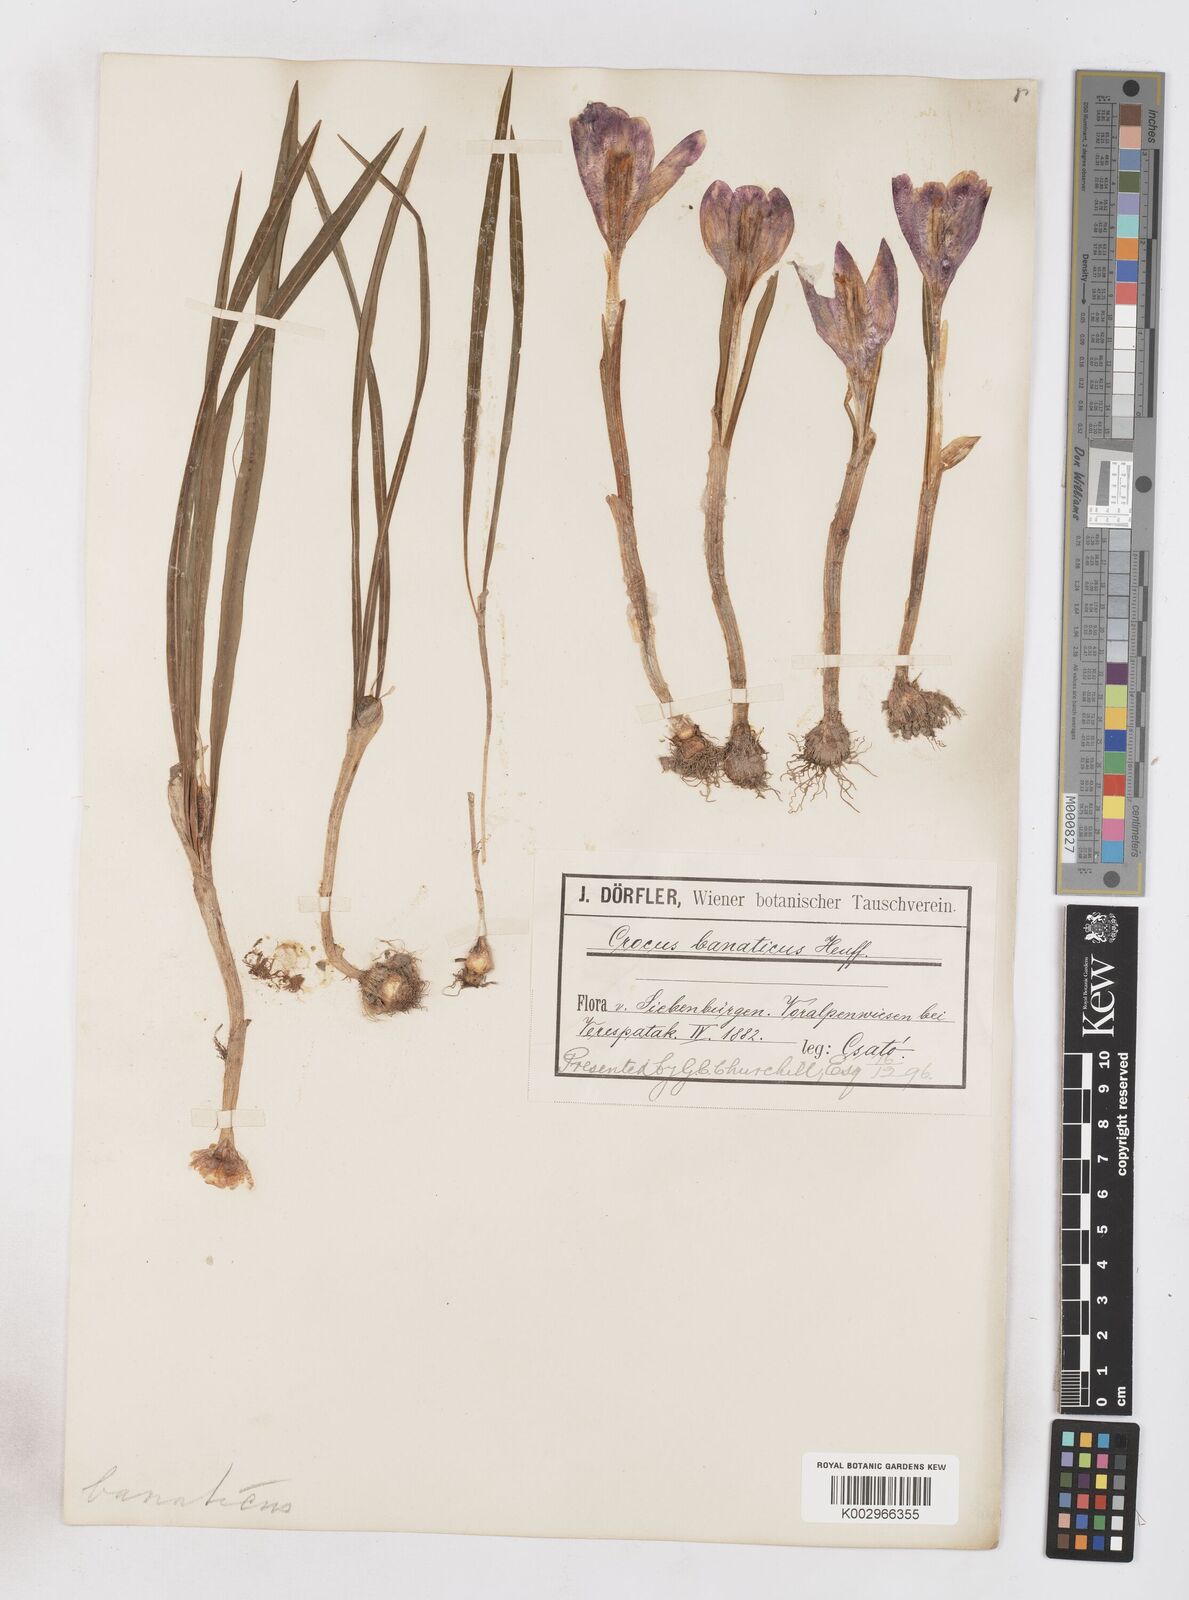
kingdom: Plantae
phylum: Tracheophyta
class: Liliopsida
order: Asparagales
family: Iridaceae
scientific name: Iridaceae
